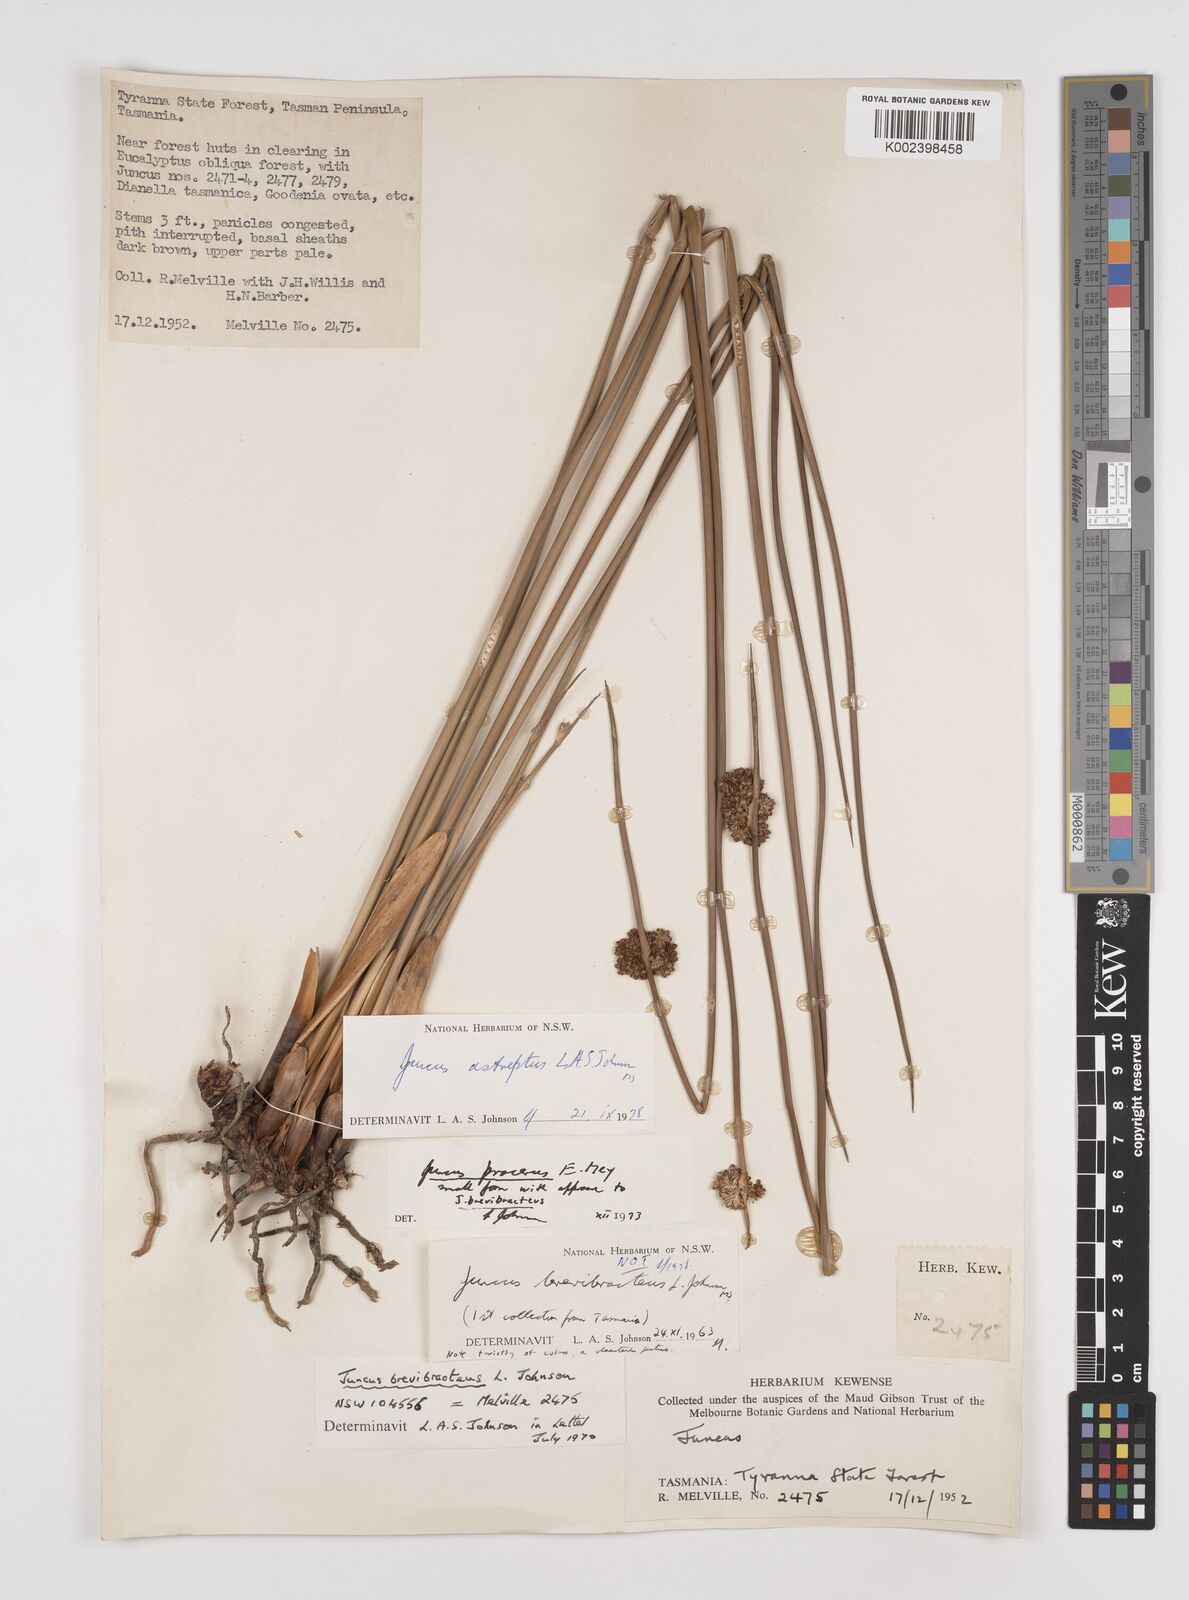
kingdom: Plantae
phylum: Tracheophyta
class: Liliopsida
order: Poales
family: Juncaceae
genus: Juncus
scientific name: Juncus procerus
